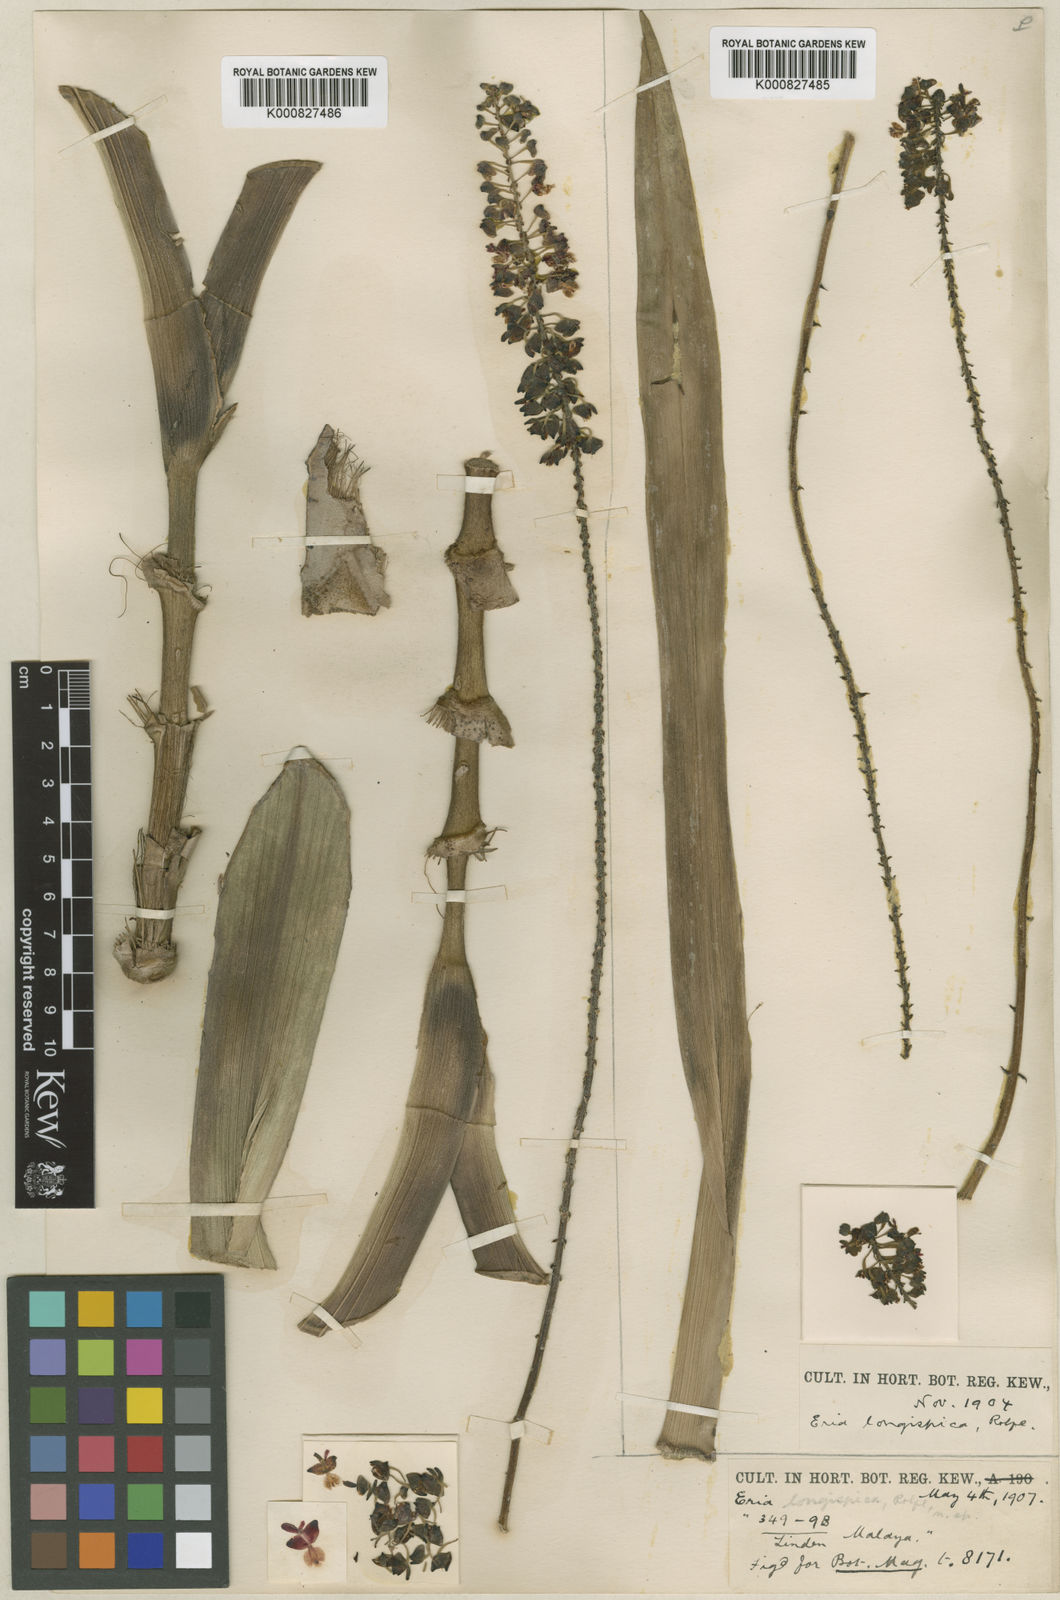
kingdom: Plantae
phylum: Tracheophyta
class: Liliopsida
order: Asparagales
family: Orchidaceae
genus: Mycaranthes
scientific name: Mycaranthes latifolia
